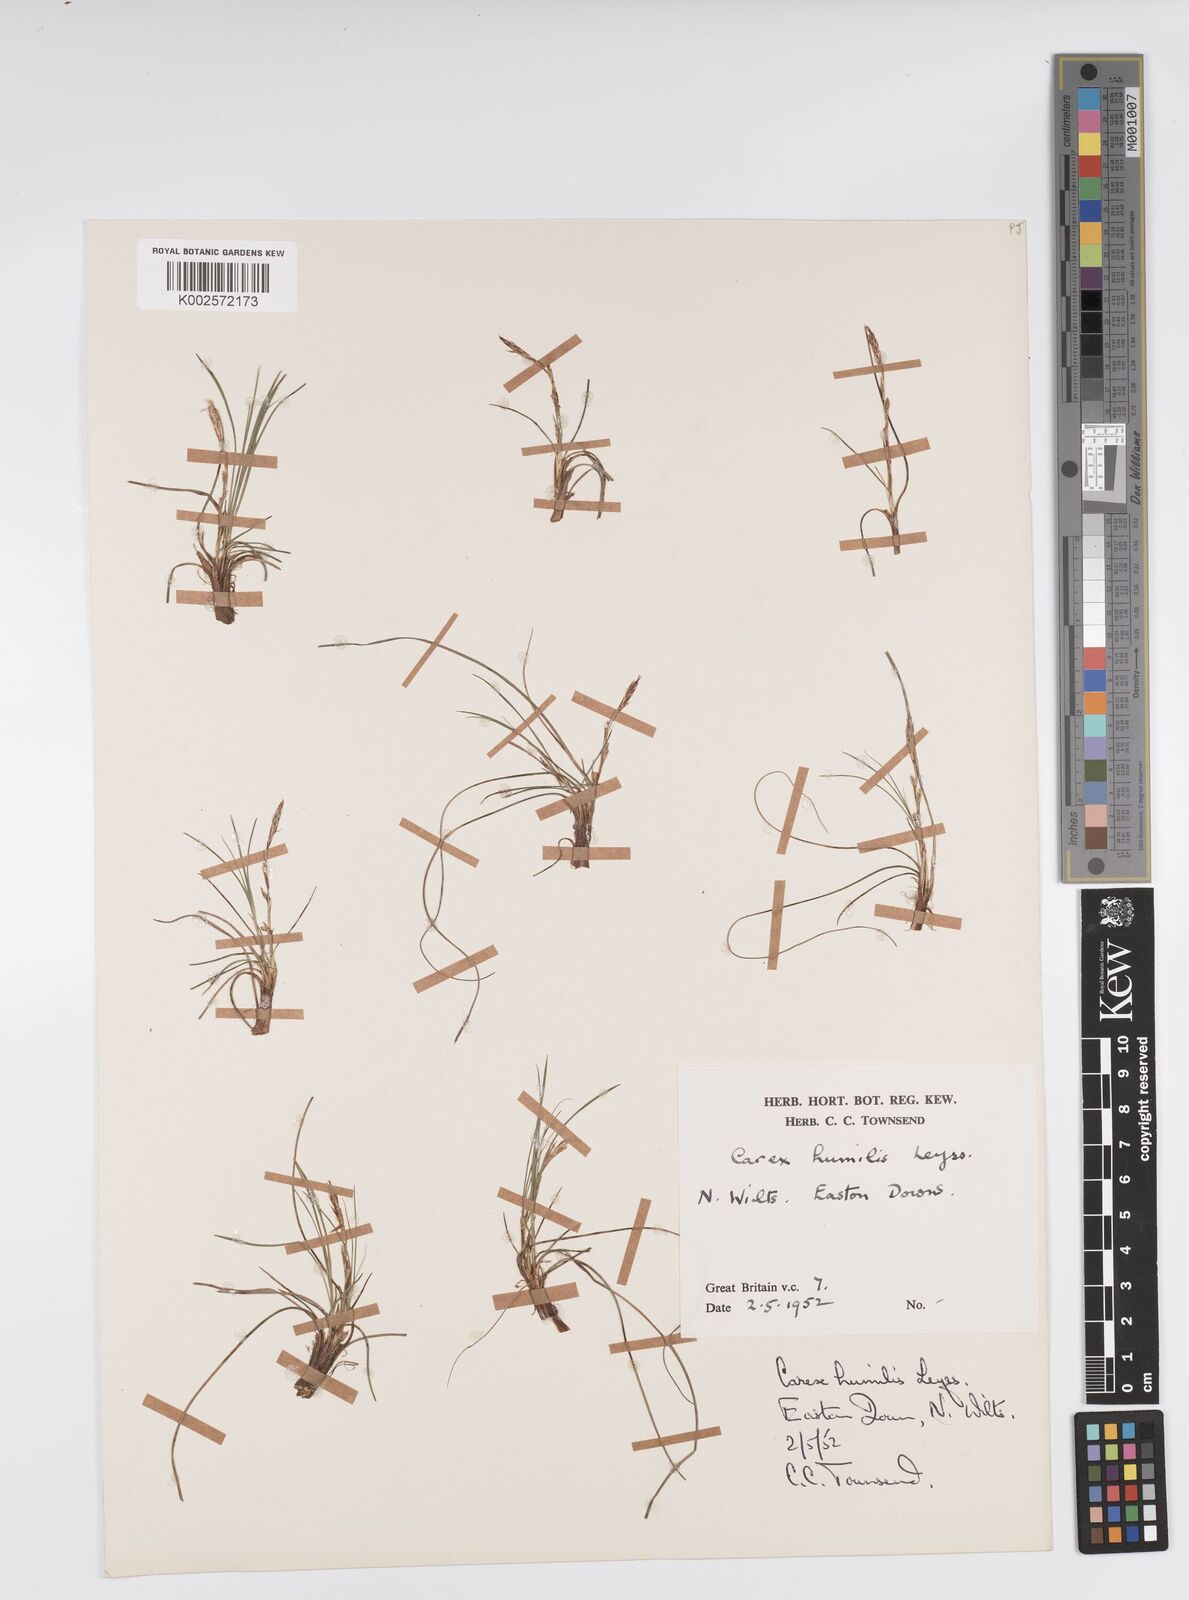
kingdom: Plantae
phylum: Tracheophyta
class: Liliopsida
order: Poales
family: Cyperaceae
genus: Carex
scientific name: Carex humilis
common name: Dwarf sedge
